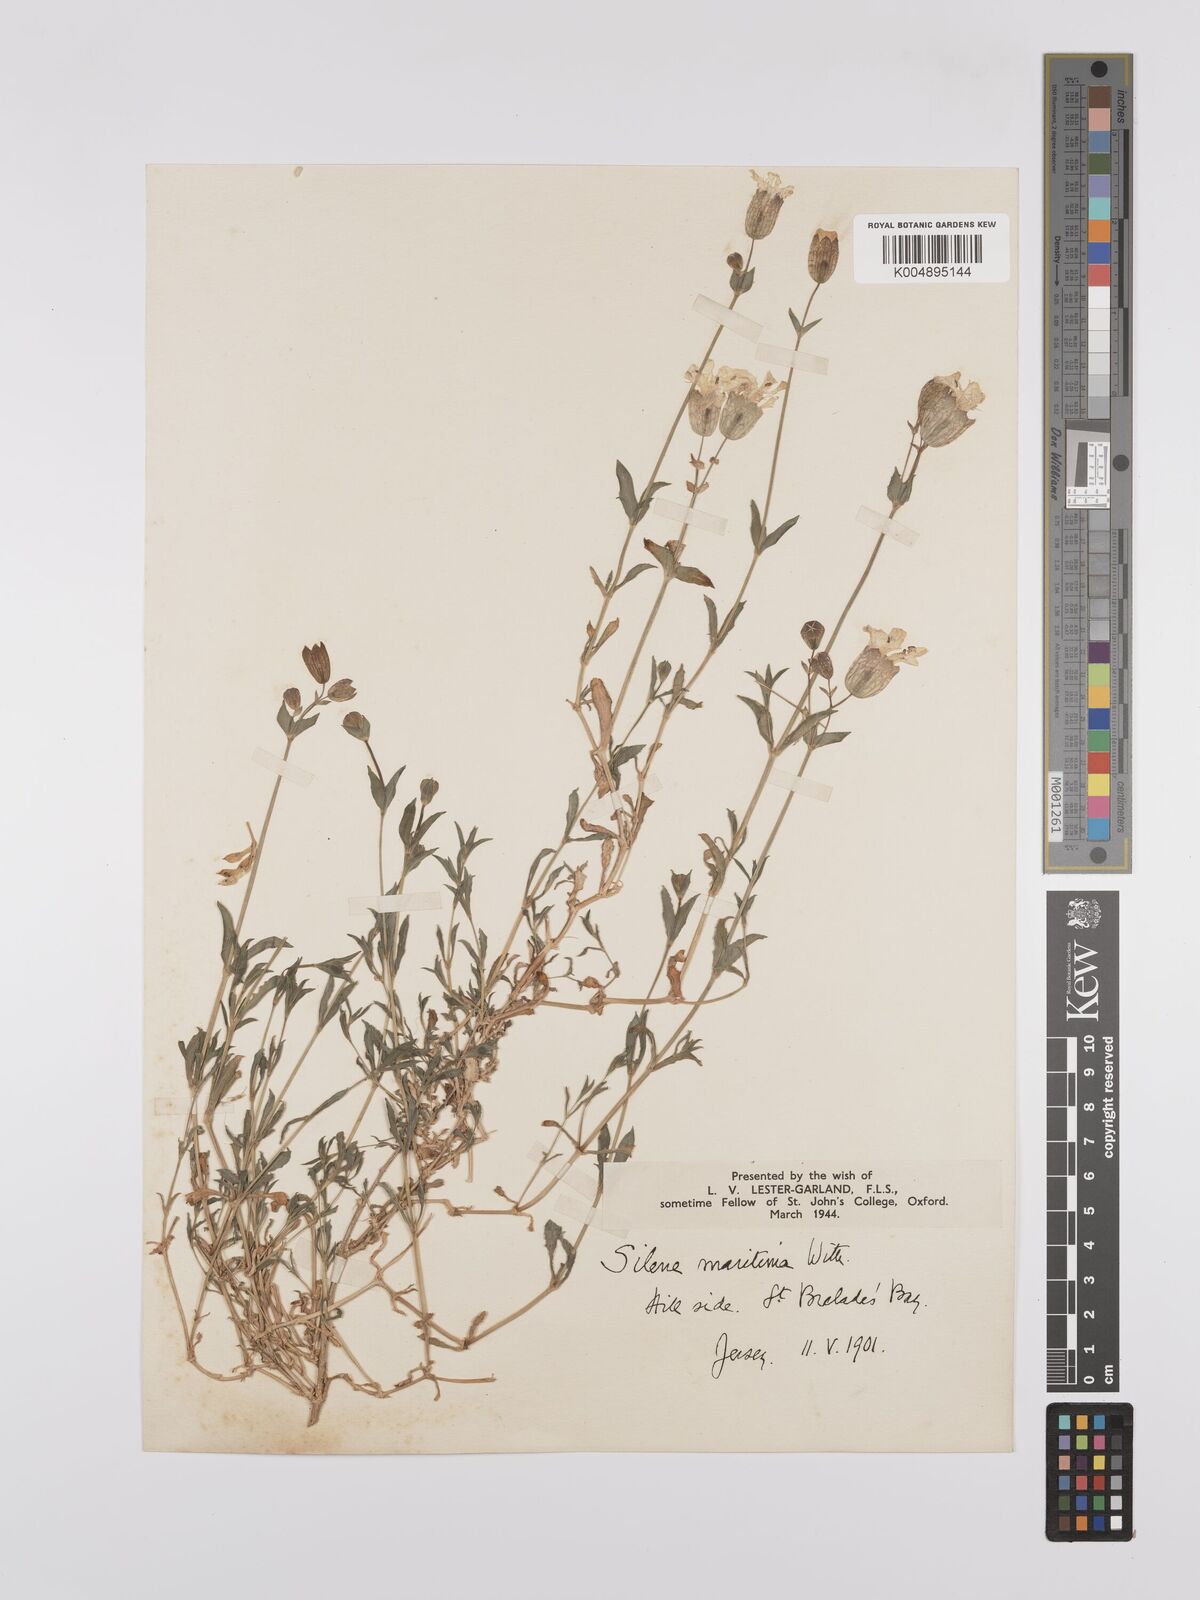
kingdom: Plantae
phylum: Tracheophyta
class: Magnoliopsida
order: Caryophyllales
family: Caryophyllaceae
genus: Silene
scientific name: Silene uniflora
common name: Sea campion
